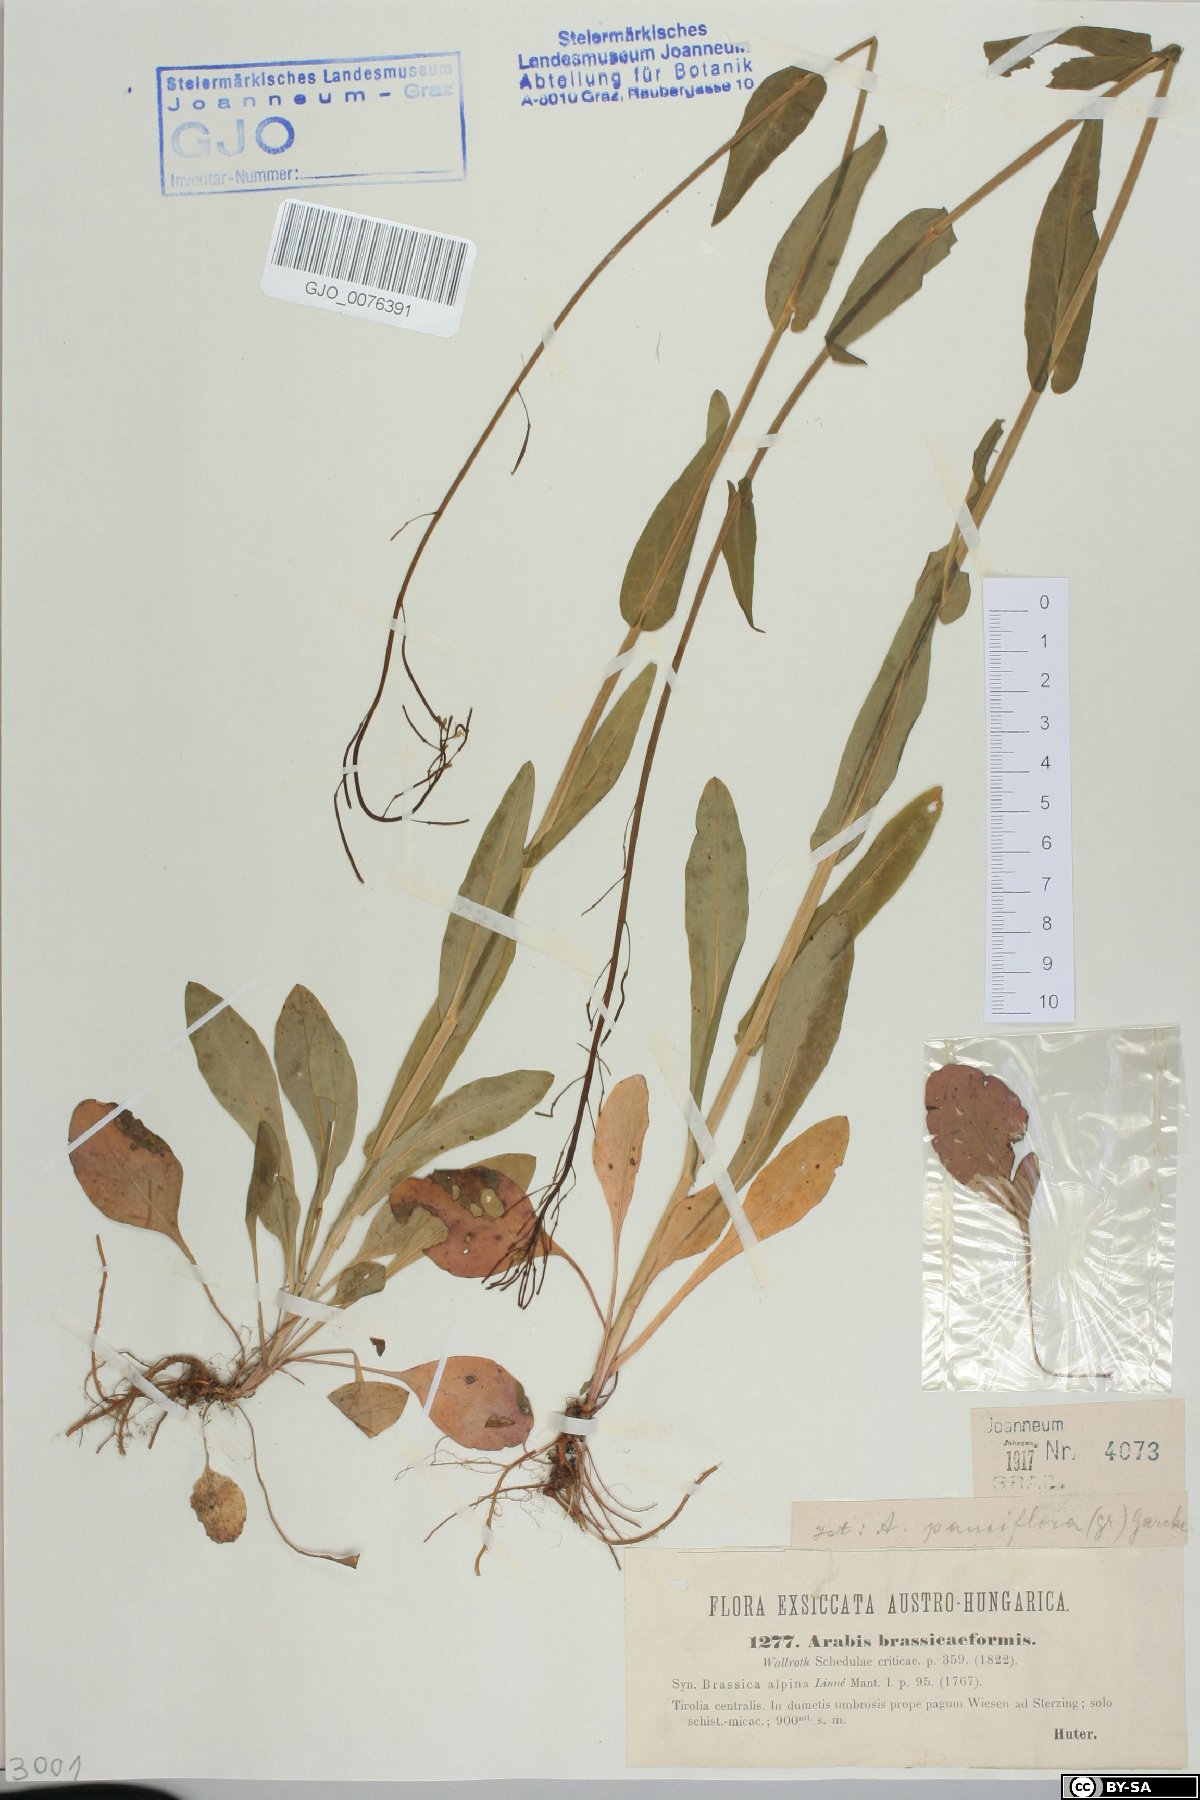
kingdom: Plantae
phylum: Tracheophyta
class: Magnoliopsida
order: Brassicales
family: Brassicaceae
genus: Fourraea
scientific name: Fourraea alpina
